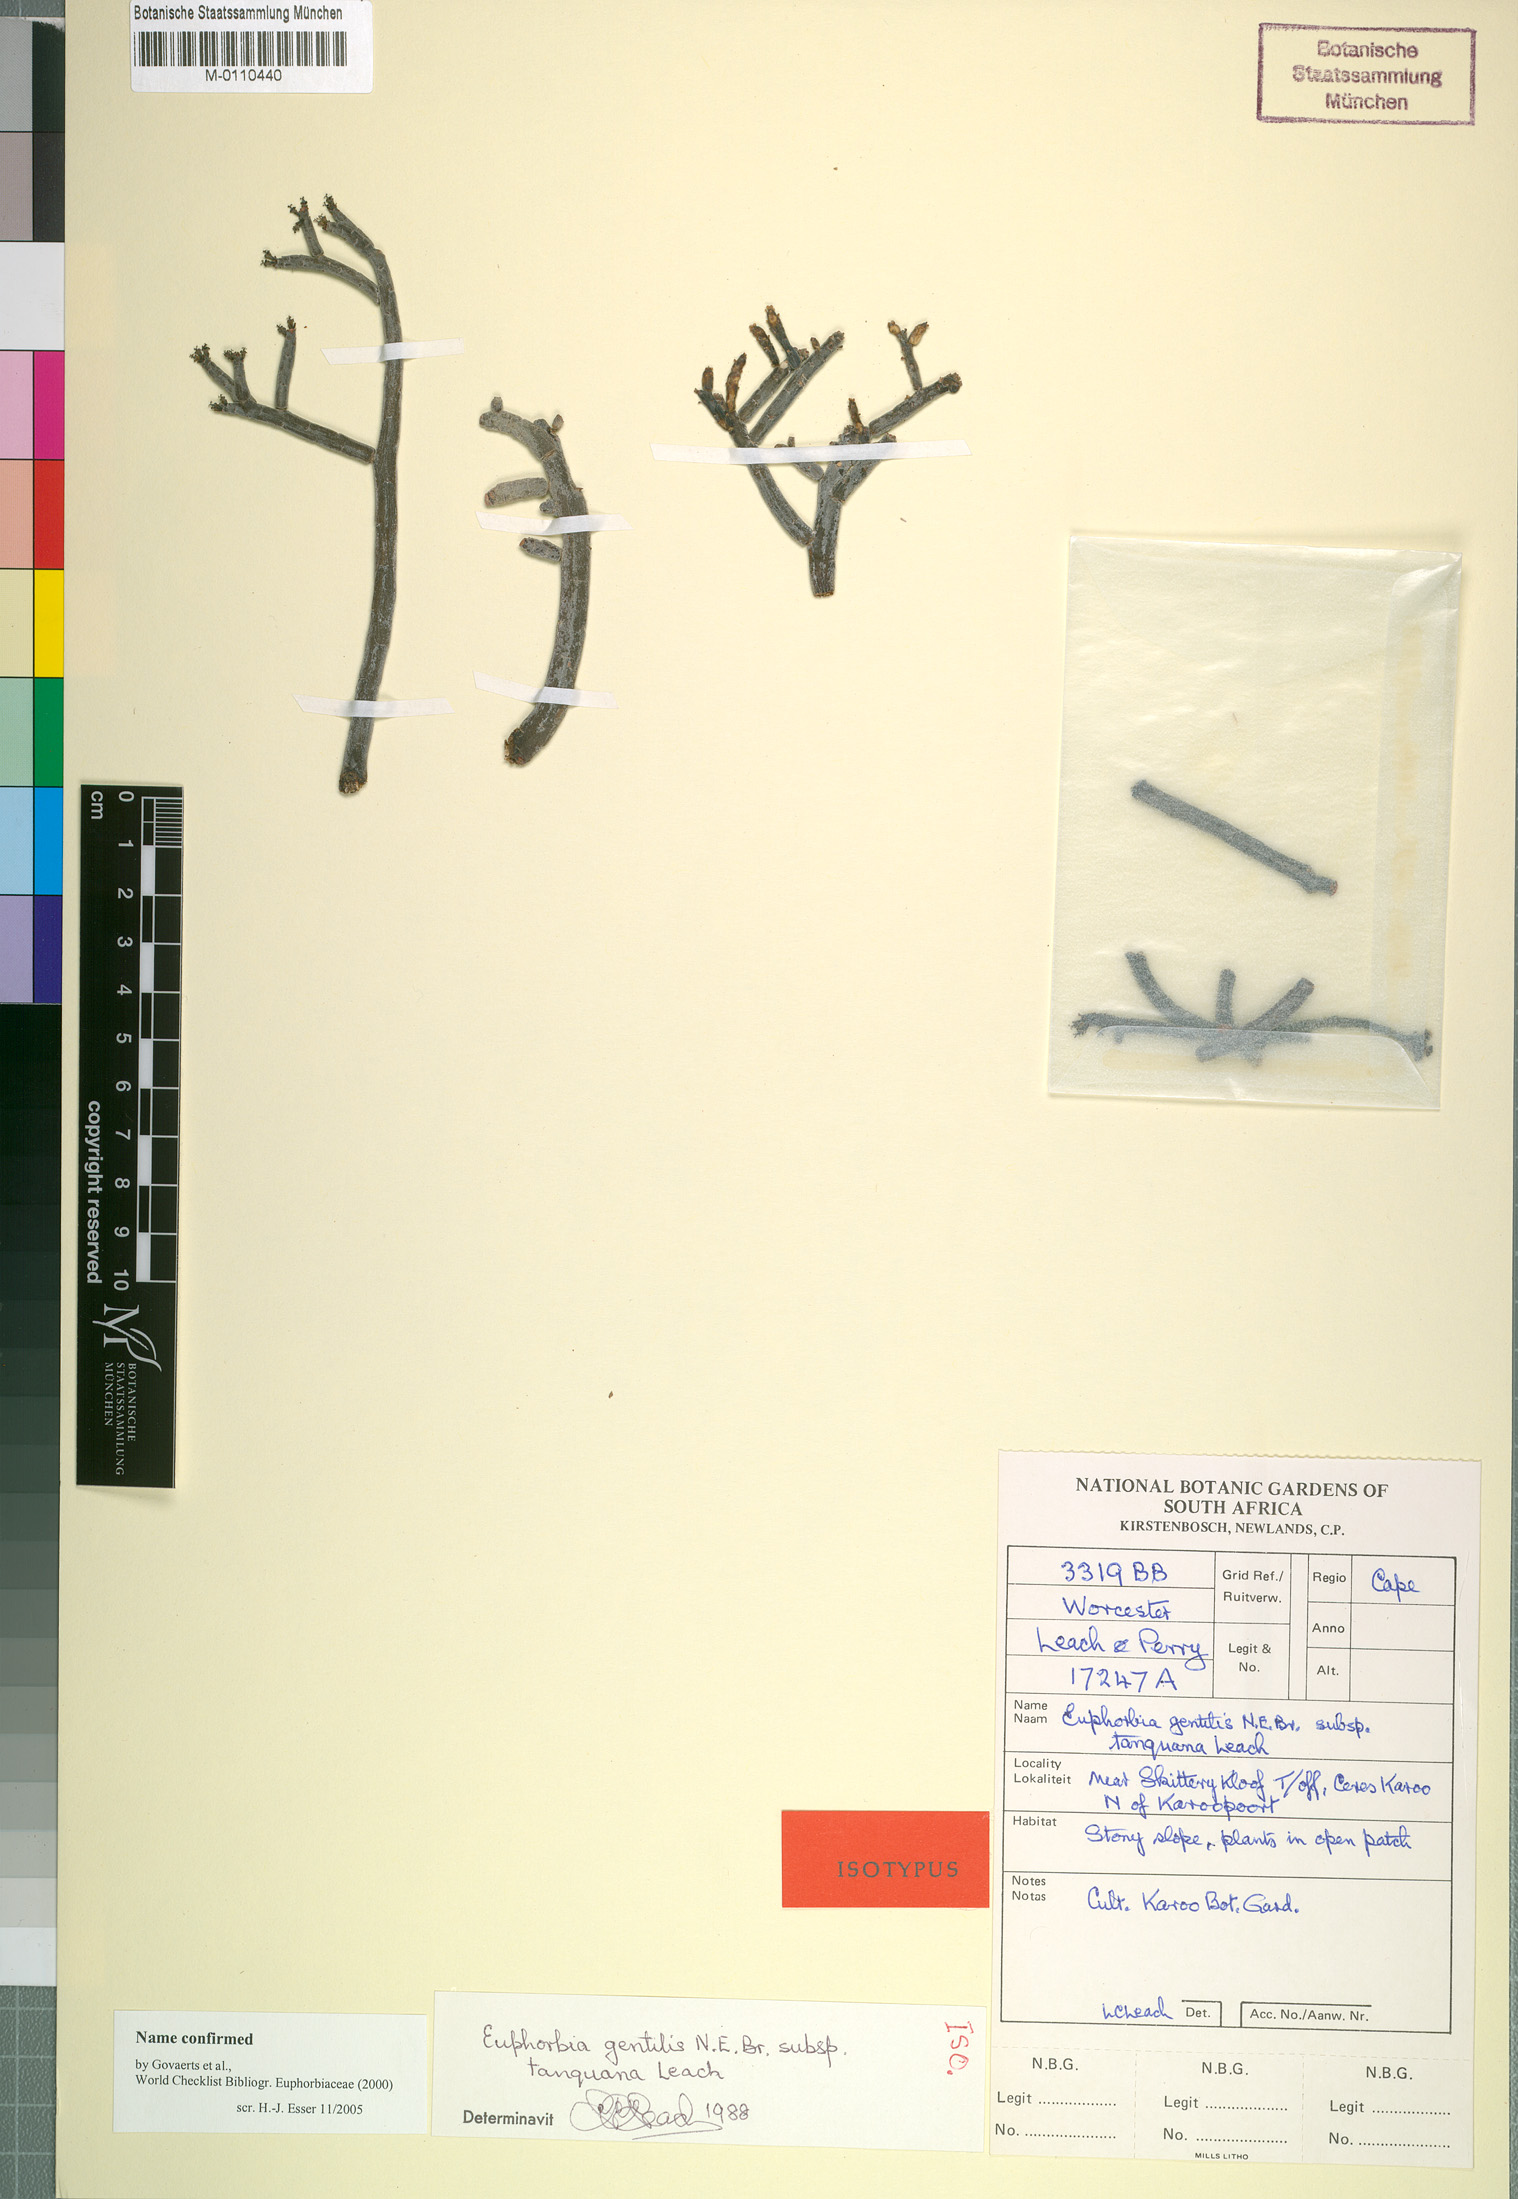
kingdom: Plantae
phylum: Tracheophyta
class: Magnoliopsida
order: Malpighiales
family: Euphorbiaceae
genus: Euphorbia
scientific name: Euphorbia gentilis
